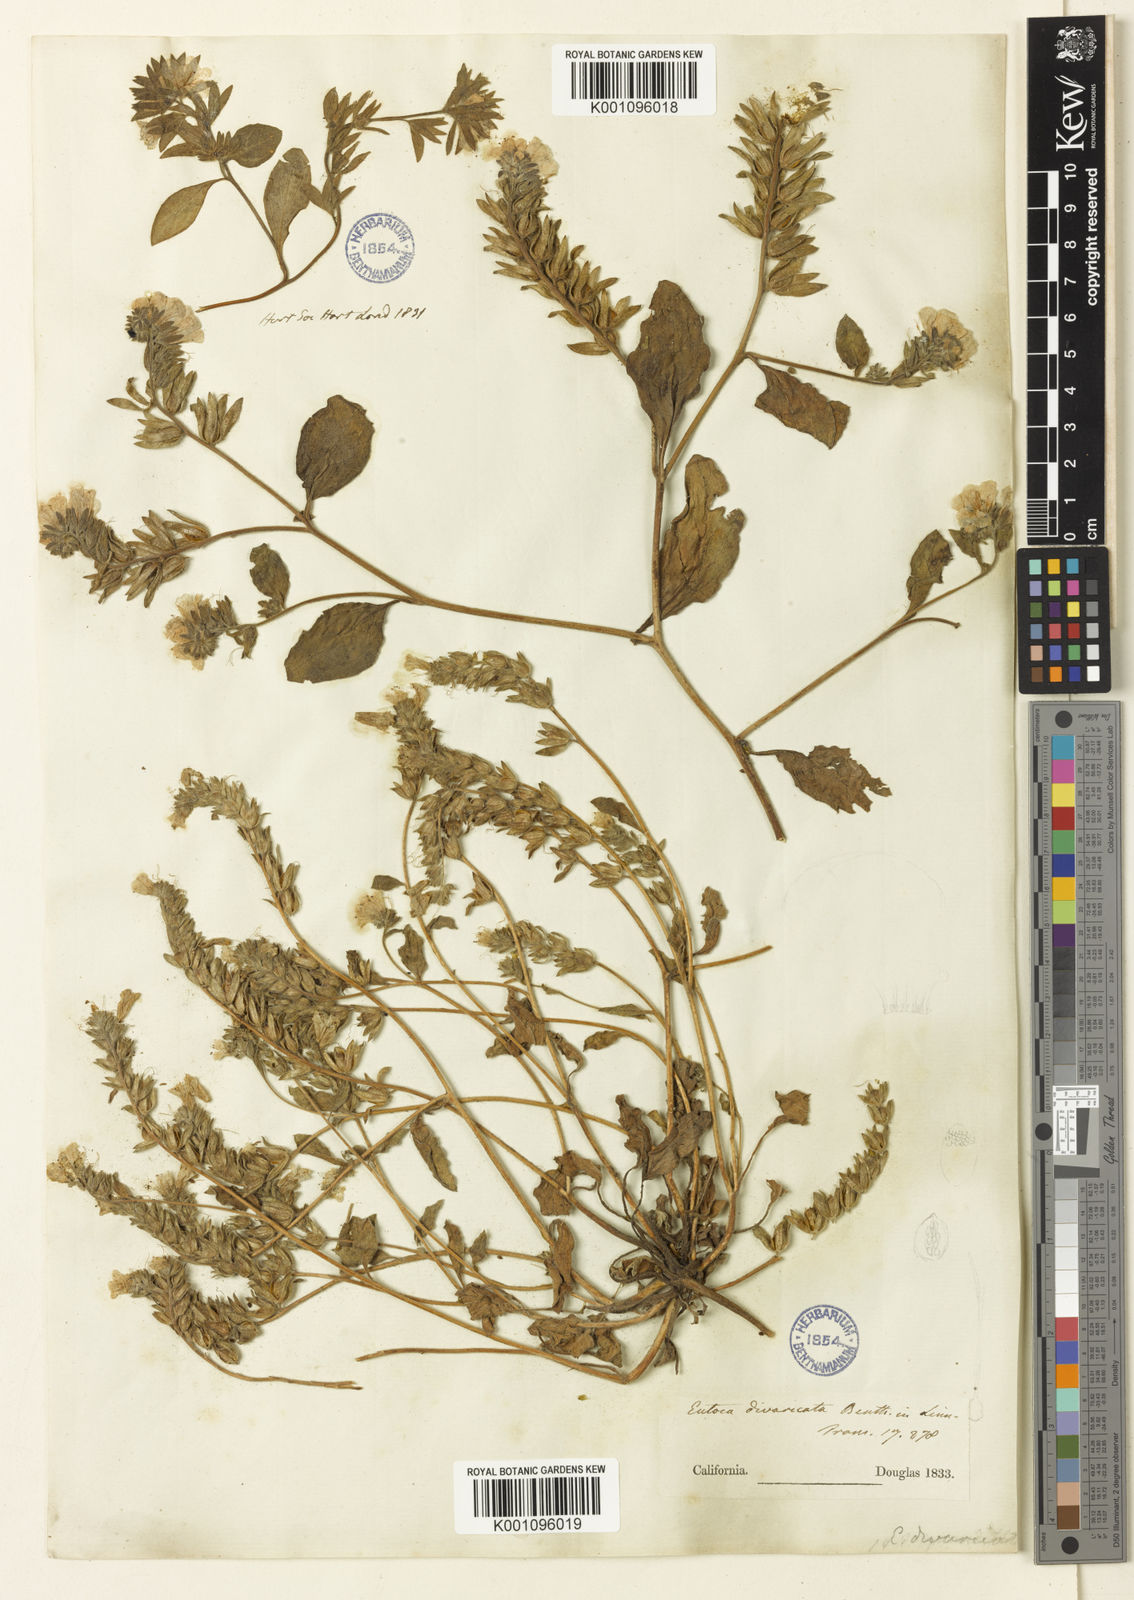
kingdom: Plantae
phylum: Tracheophyta
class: Magnoliopsida
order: Boraginales
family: Hydrophyllaceae
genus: Phacelia
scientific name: Phacelia divaricata
